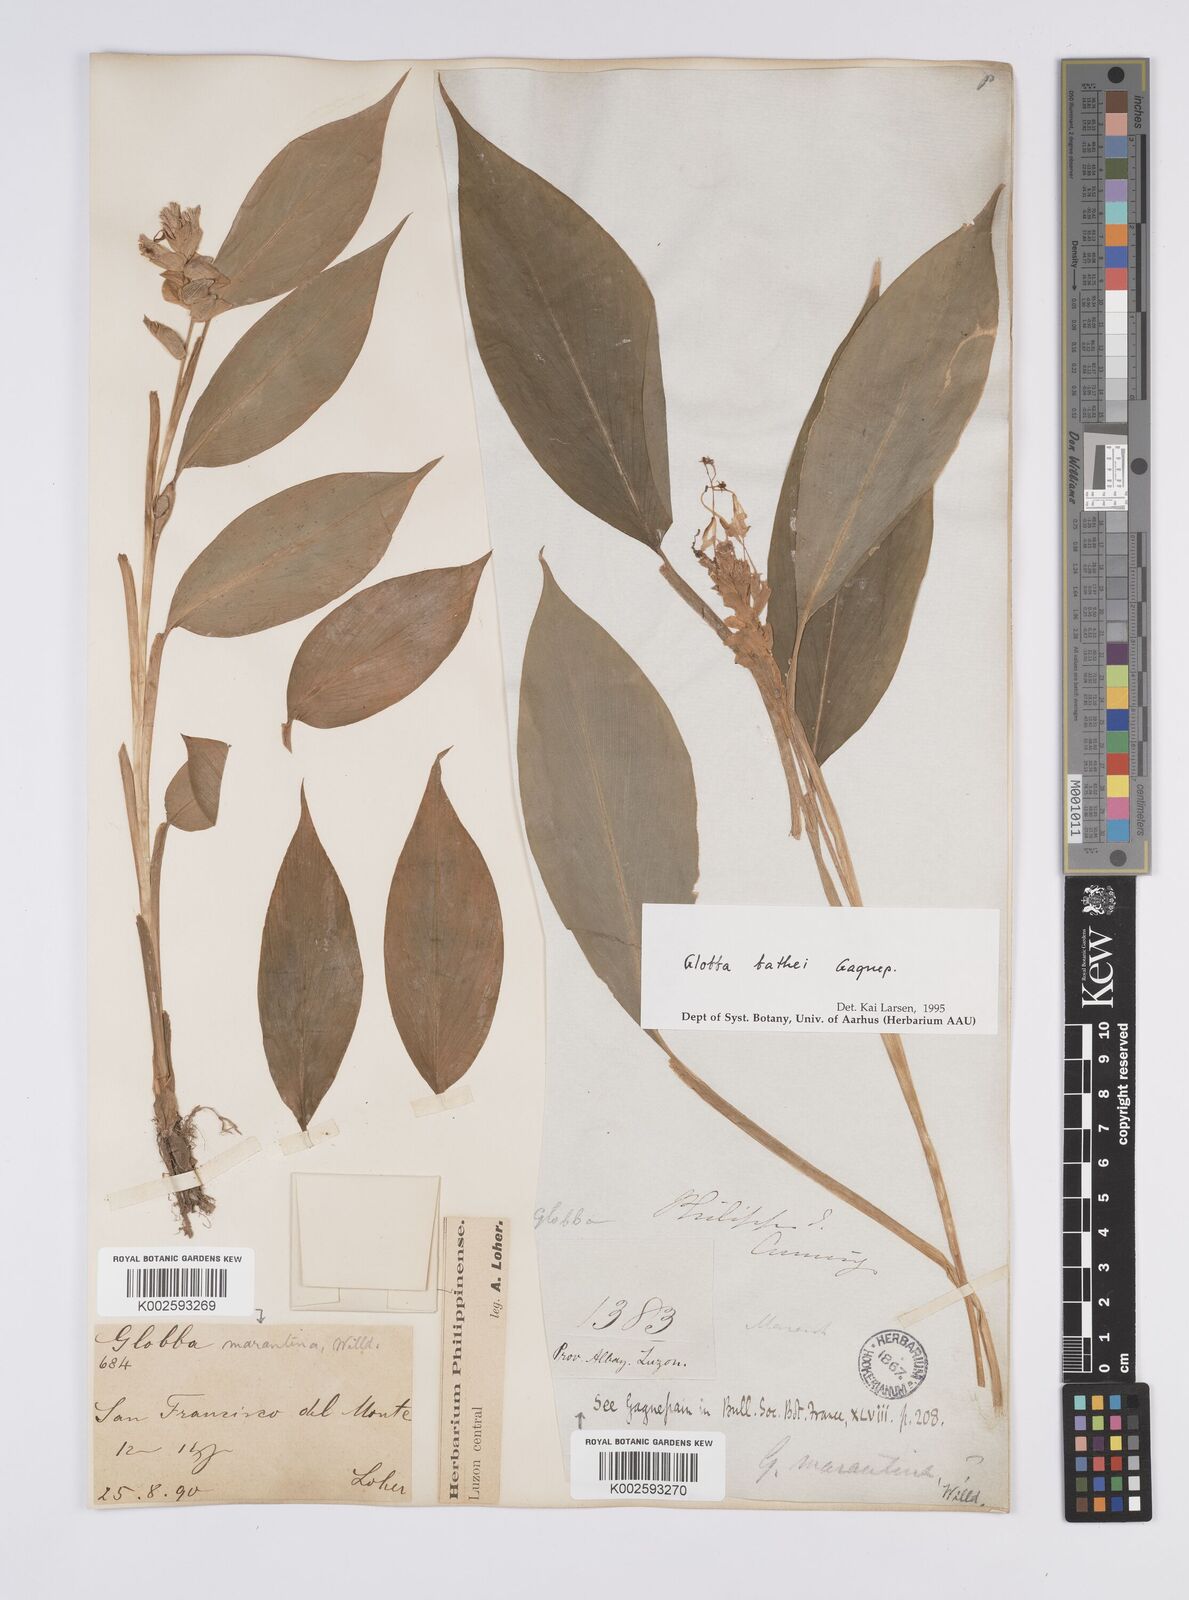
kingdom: Plantae
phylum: Tracheophyta
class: Liliopsida
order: Zingiberales
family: Zingiberaceae
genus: Globba
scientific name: Globba marantina
